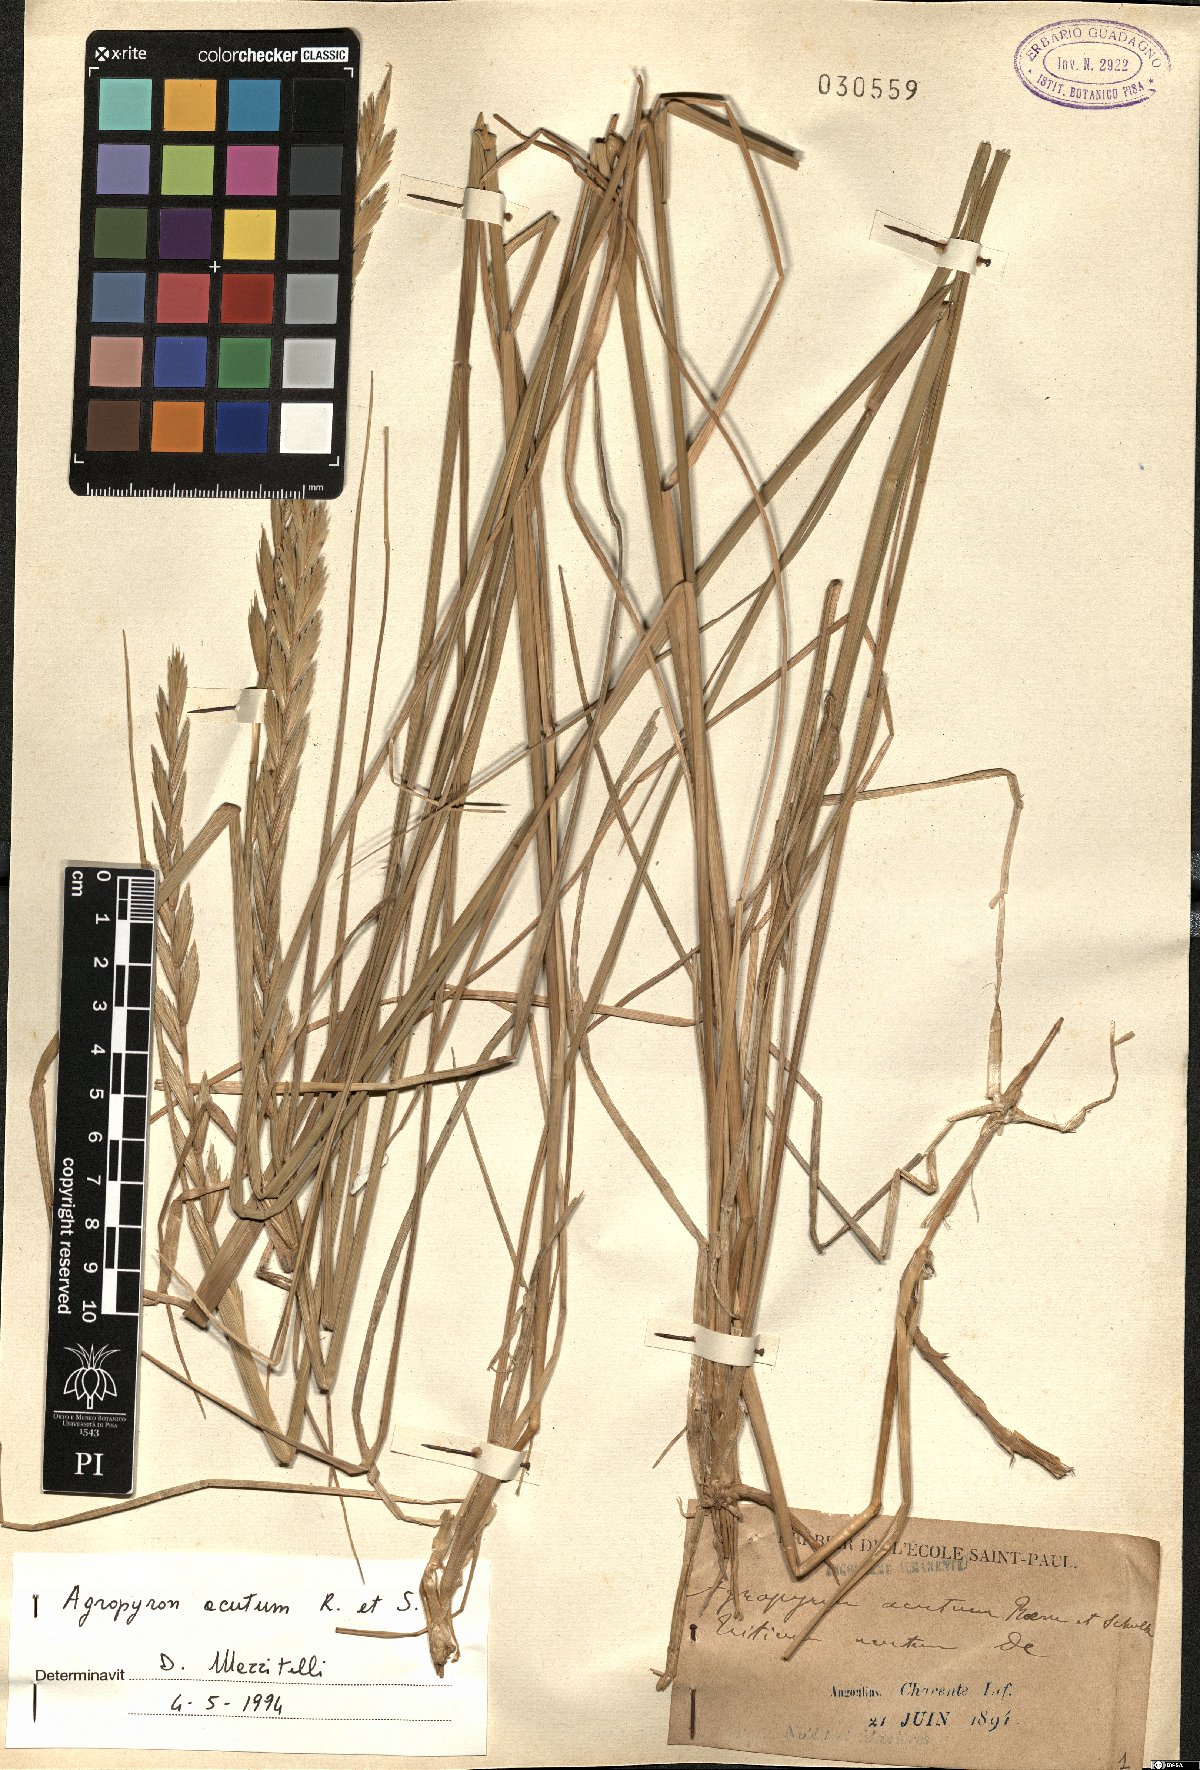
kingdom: Plantae
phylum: Tracheophyta
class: Liliopsida
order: Poales
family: Poaceae
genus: Thinopyrum
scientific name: Thinopyrum acutum
